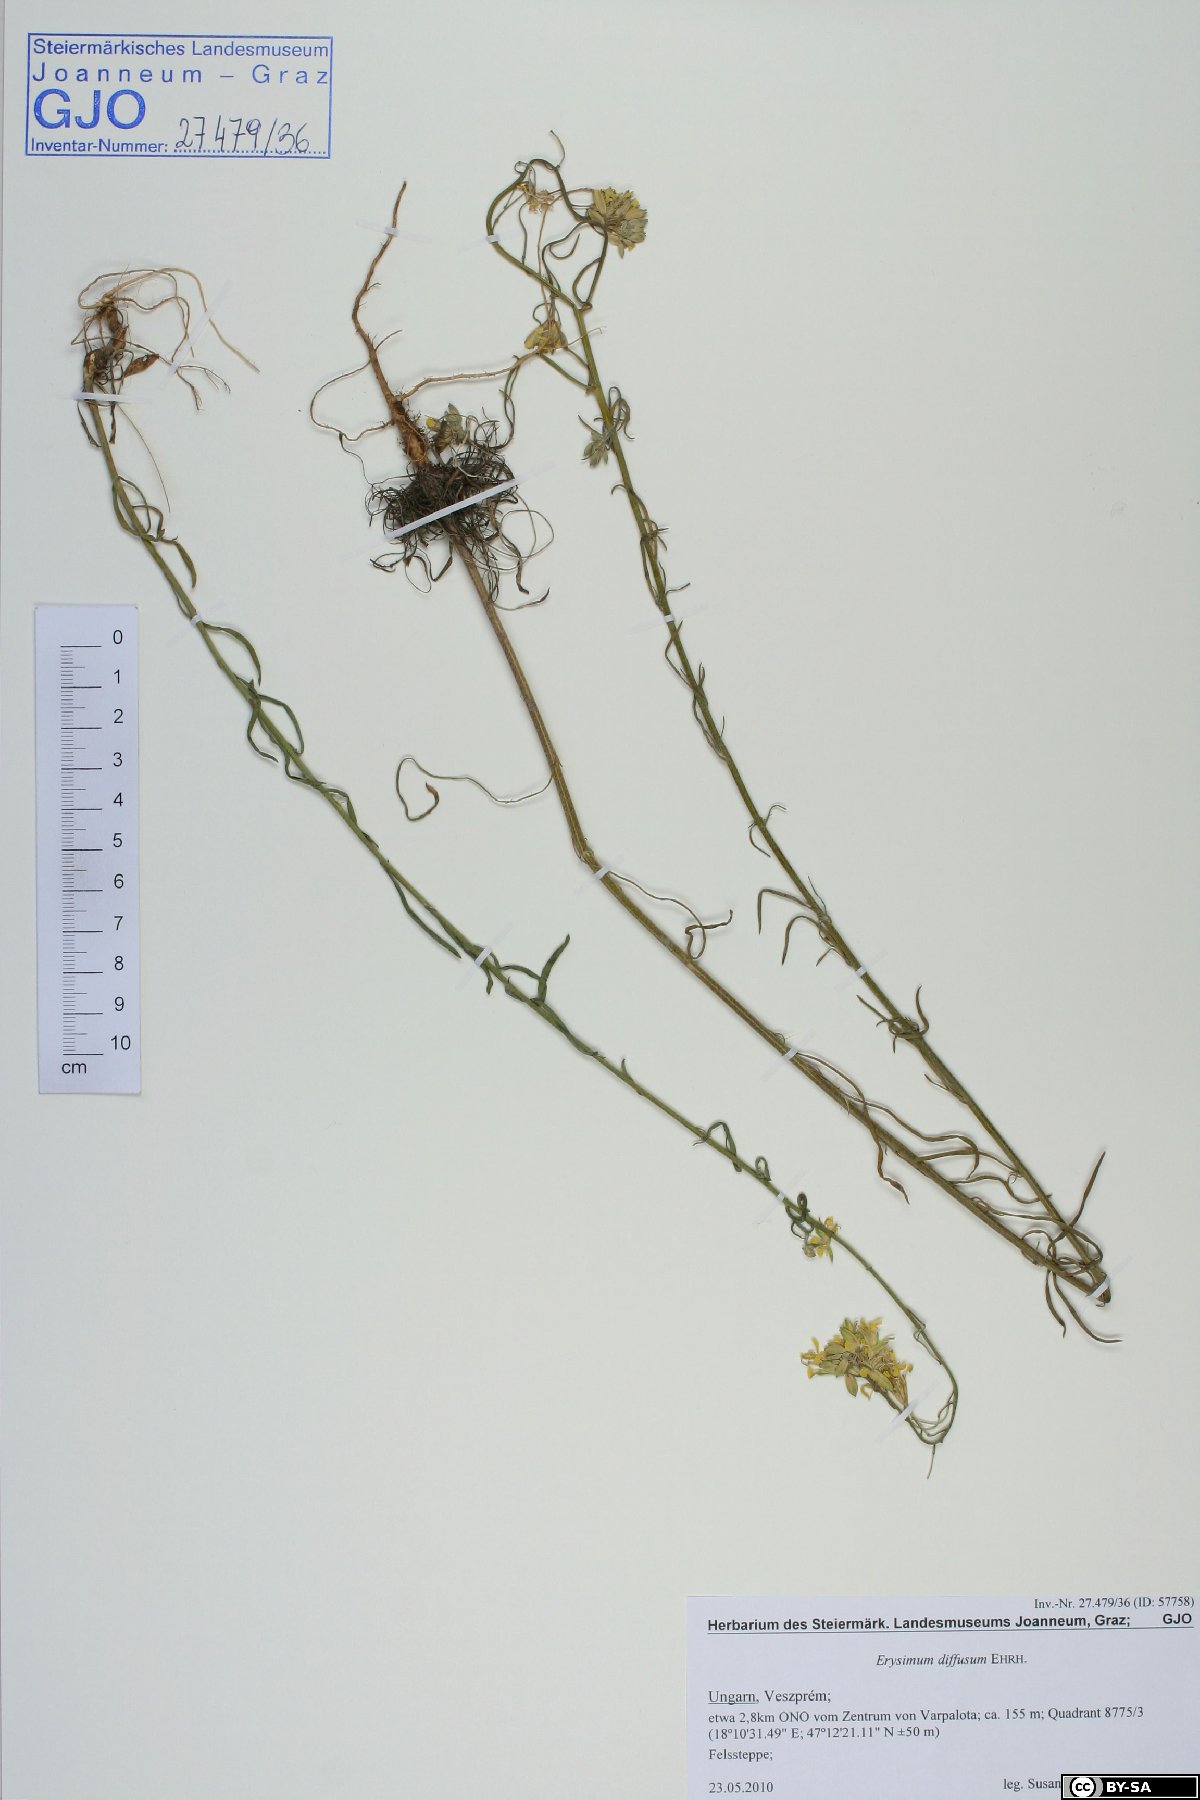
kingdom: Plantae
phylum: Tracheophyta
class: Magnoliopsida
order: Brassicales
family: Brassicaceae
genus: Erysimum
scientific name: Erysimum diffusum
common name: Diffuse wallflower
